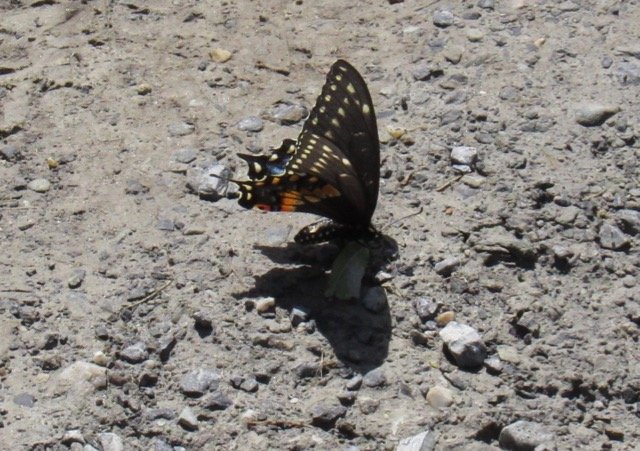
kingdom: Animalia
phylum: Arthropoda
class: Insecta
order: Lepidoptera
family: Papilionidae
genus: Papilio
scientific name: Papilio polyxenes
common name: Black Swallowtail
